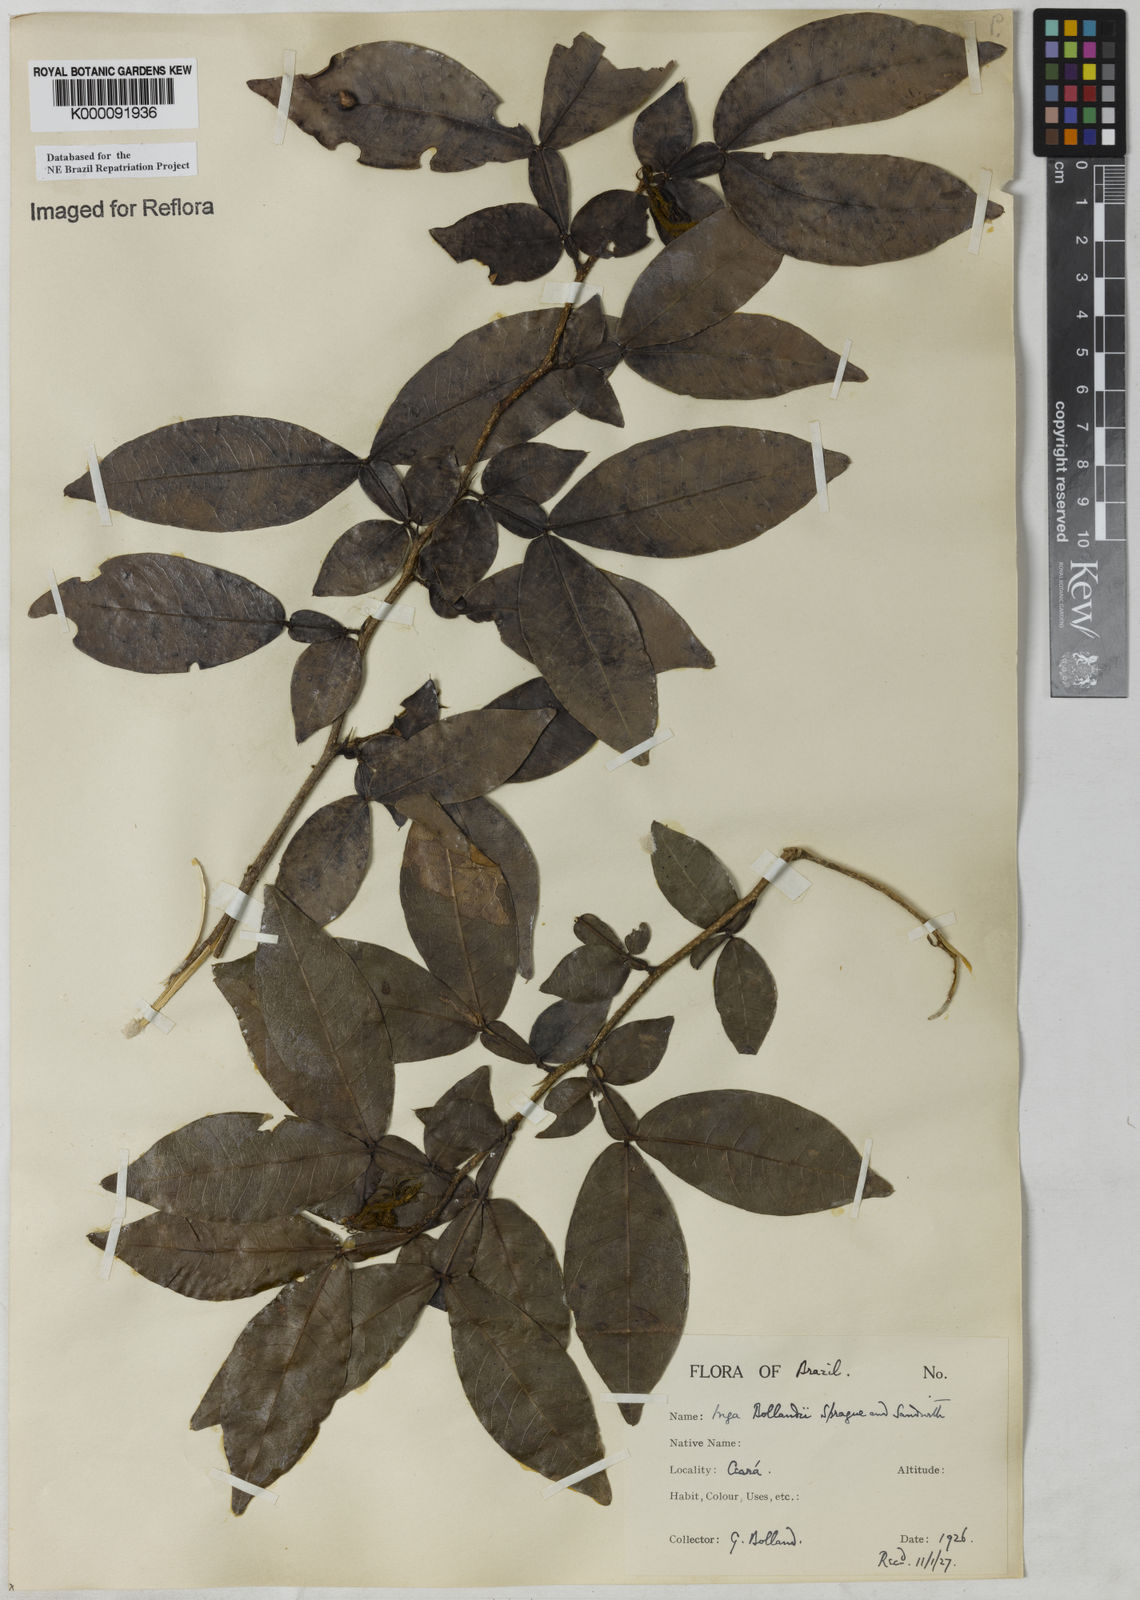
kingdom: Plantae
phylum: Tracheophyta
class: Magnoliopsida
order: Fabales
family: Fabaceae
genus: Inga
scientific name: Inga bollandii
